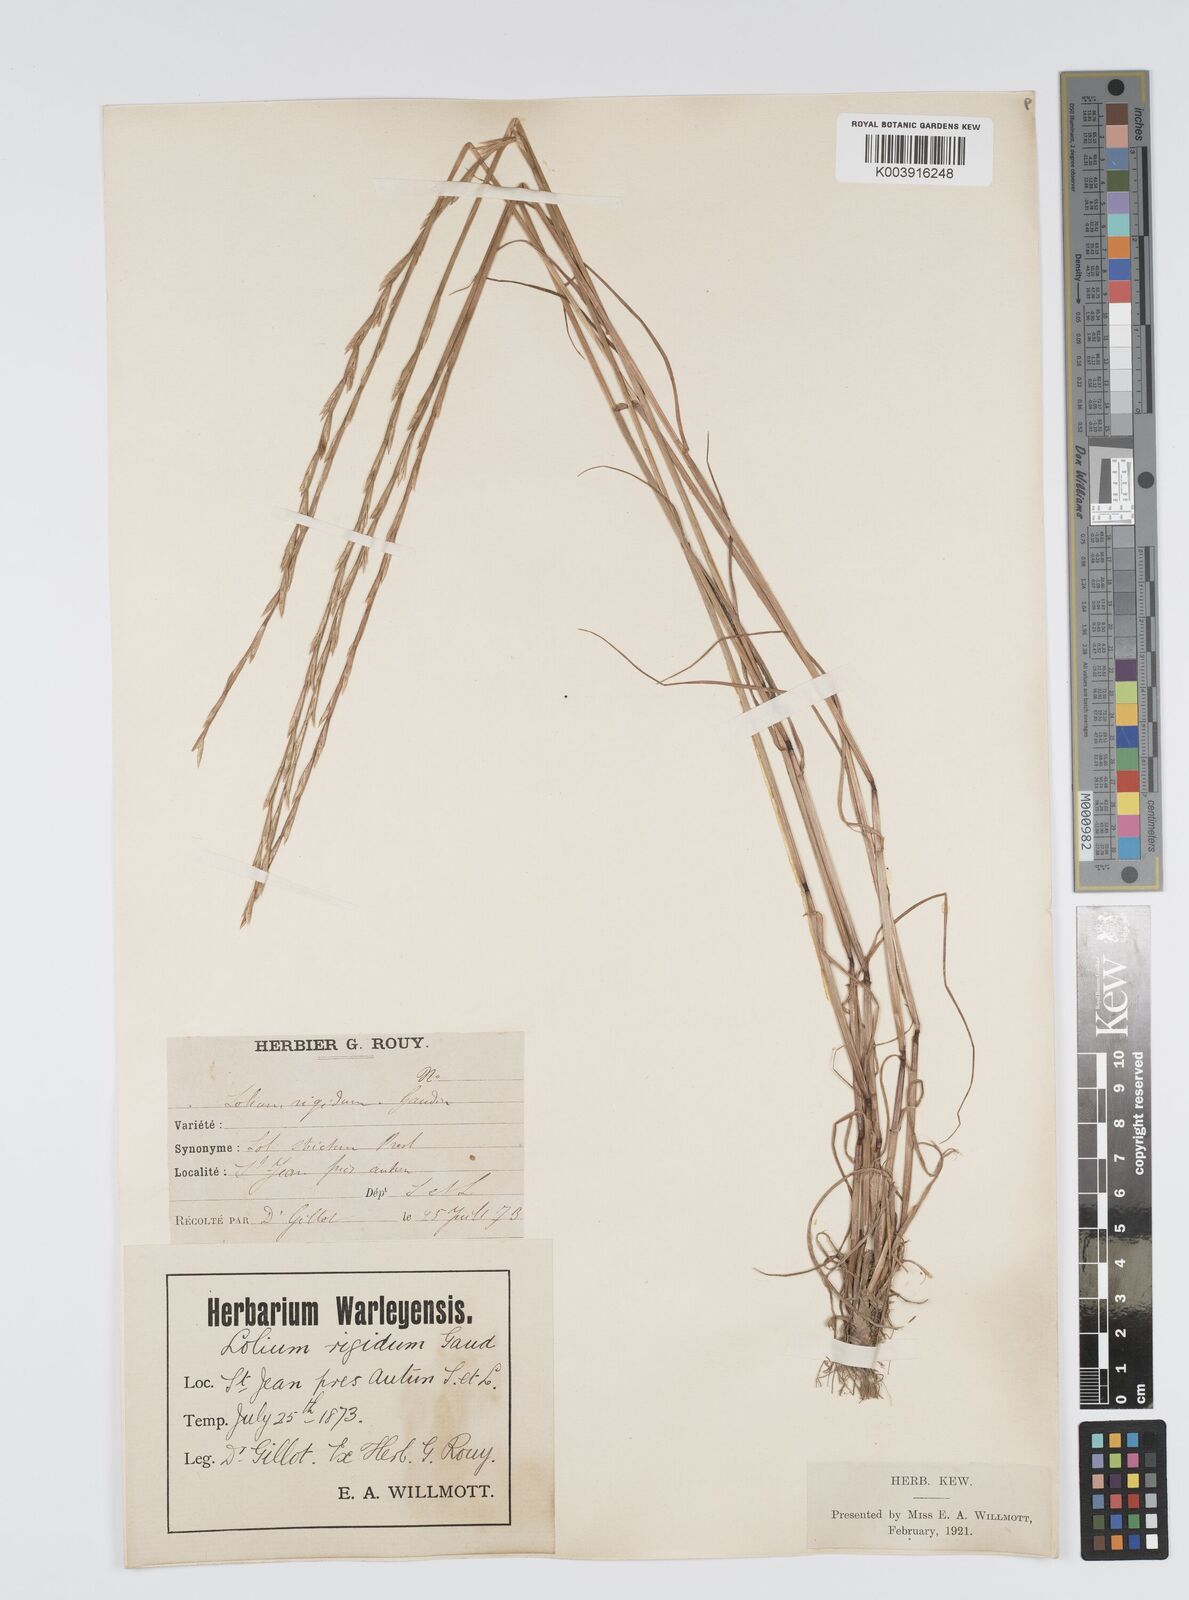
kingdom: Plantae
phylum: Tracheophyta
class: Liliopsida
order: Poales
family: Poaceae
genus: Lolium
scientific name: Lolium rigidum
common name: Wimmera ryegrass
